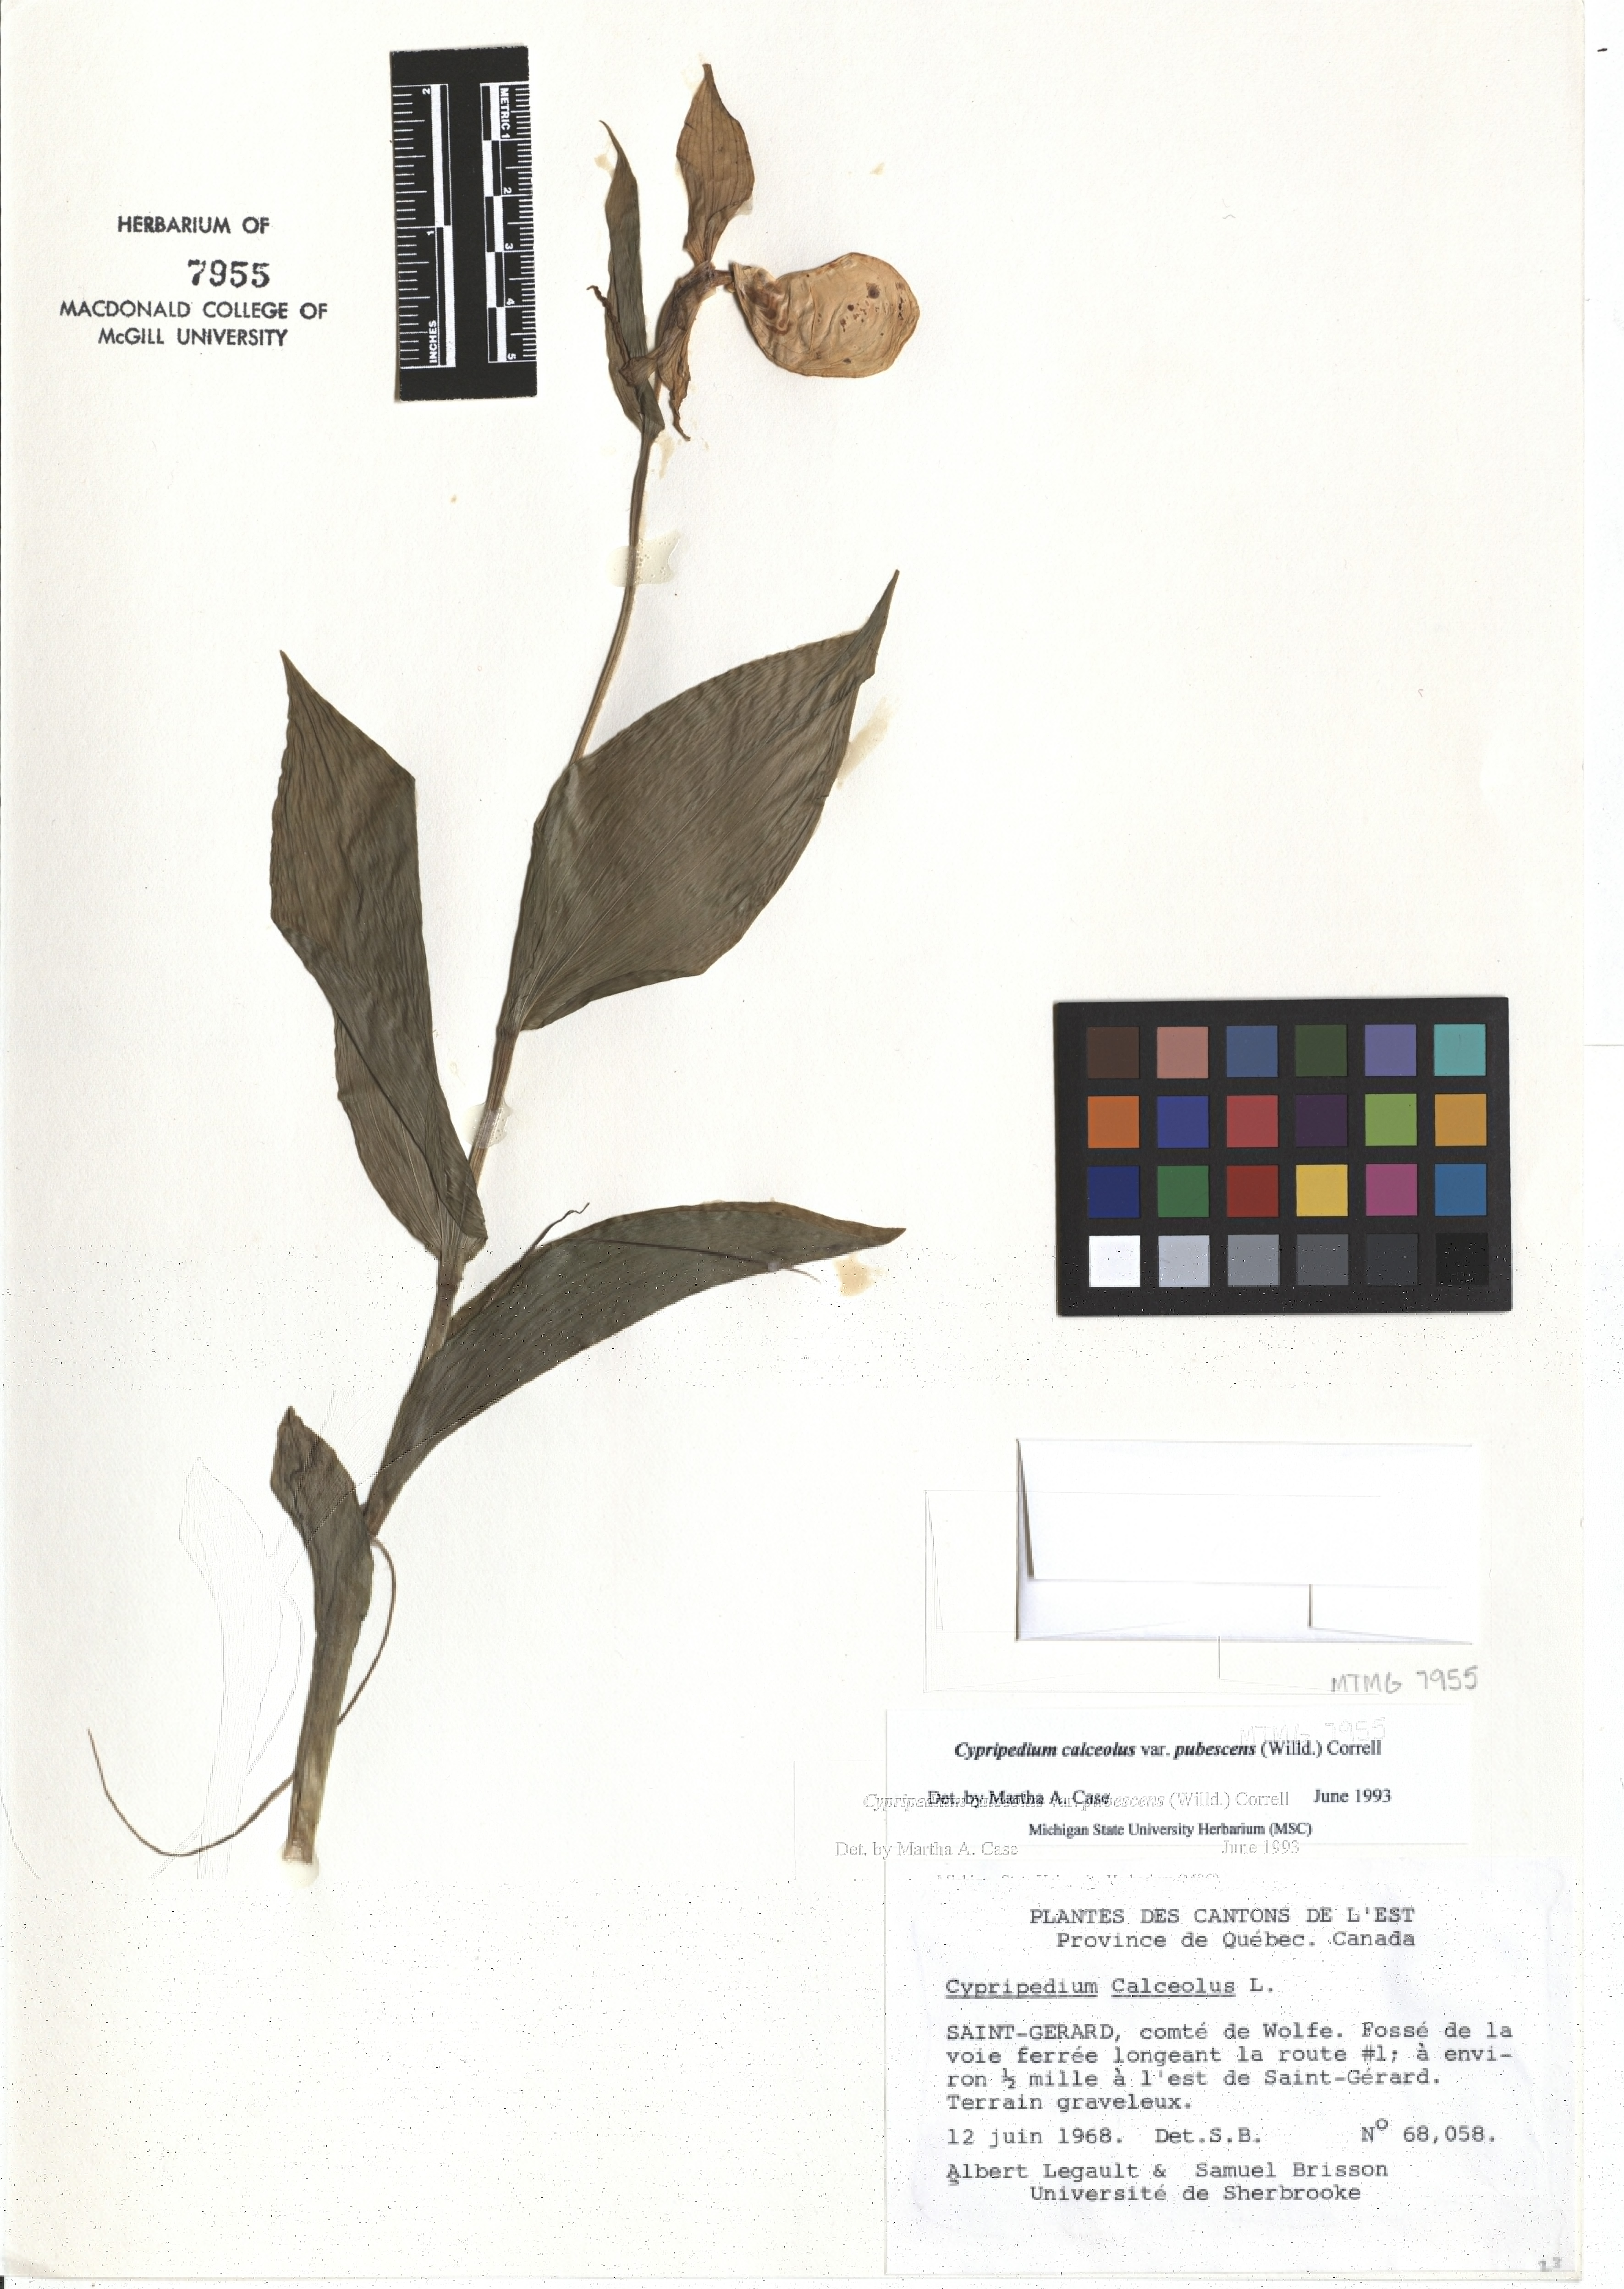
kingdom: Plantae
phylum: Tracheophyta
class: Liliopsida
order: Asparagales
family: Orchidaceae
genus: Cypripedium
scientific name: Cypripedium calceolus
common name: Lady's-slipper
